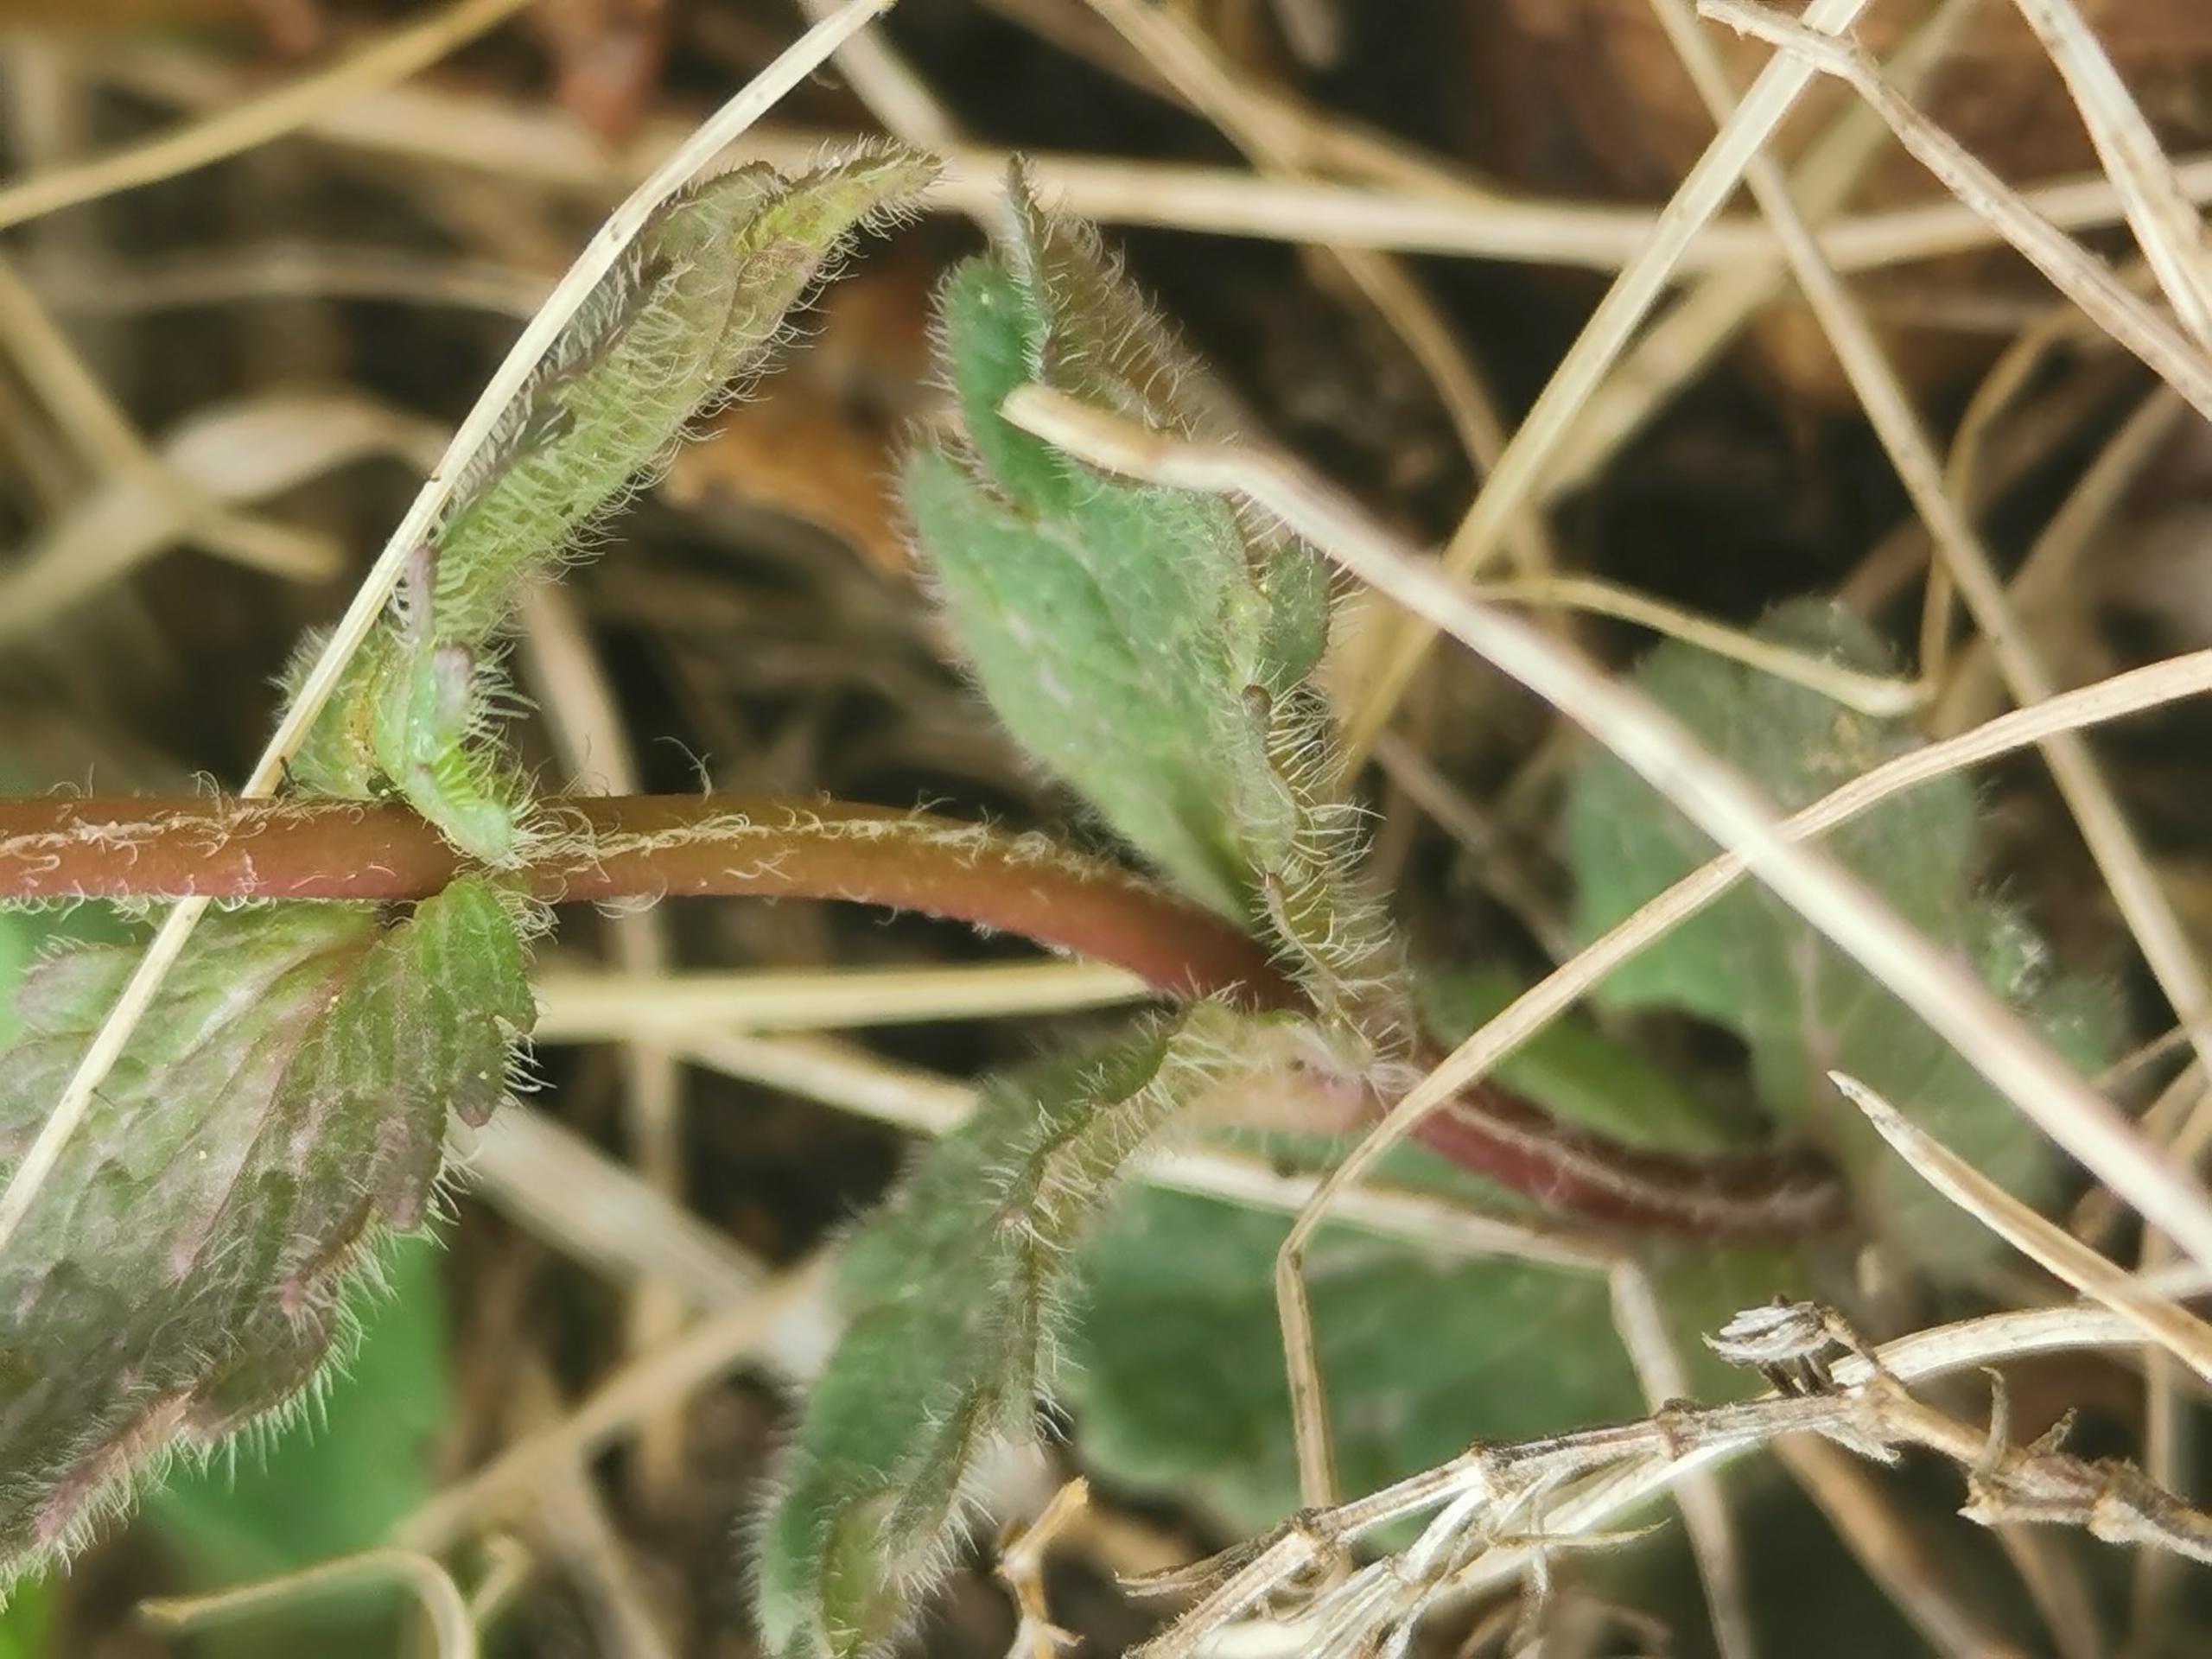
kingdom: Plantae
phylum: Tracheophyta
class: Magnoliopsida
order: Lamiales
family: Plantaginaceae
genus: Veronica
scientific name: Veronica chamaedrys
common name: Tveskægget ærenpris
